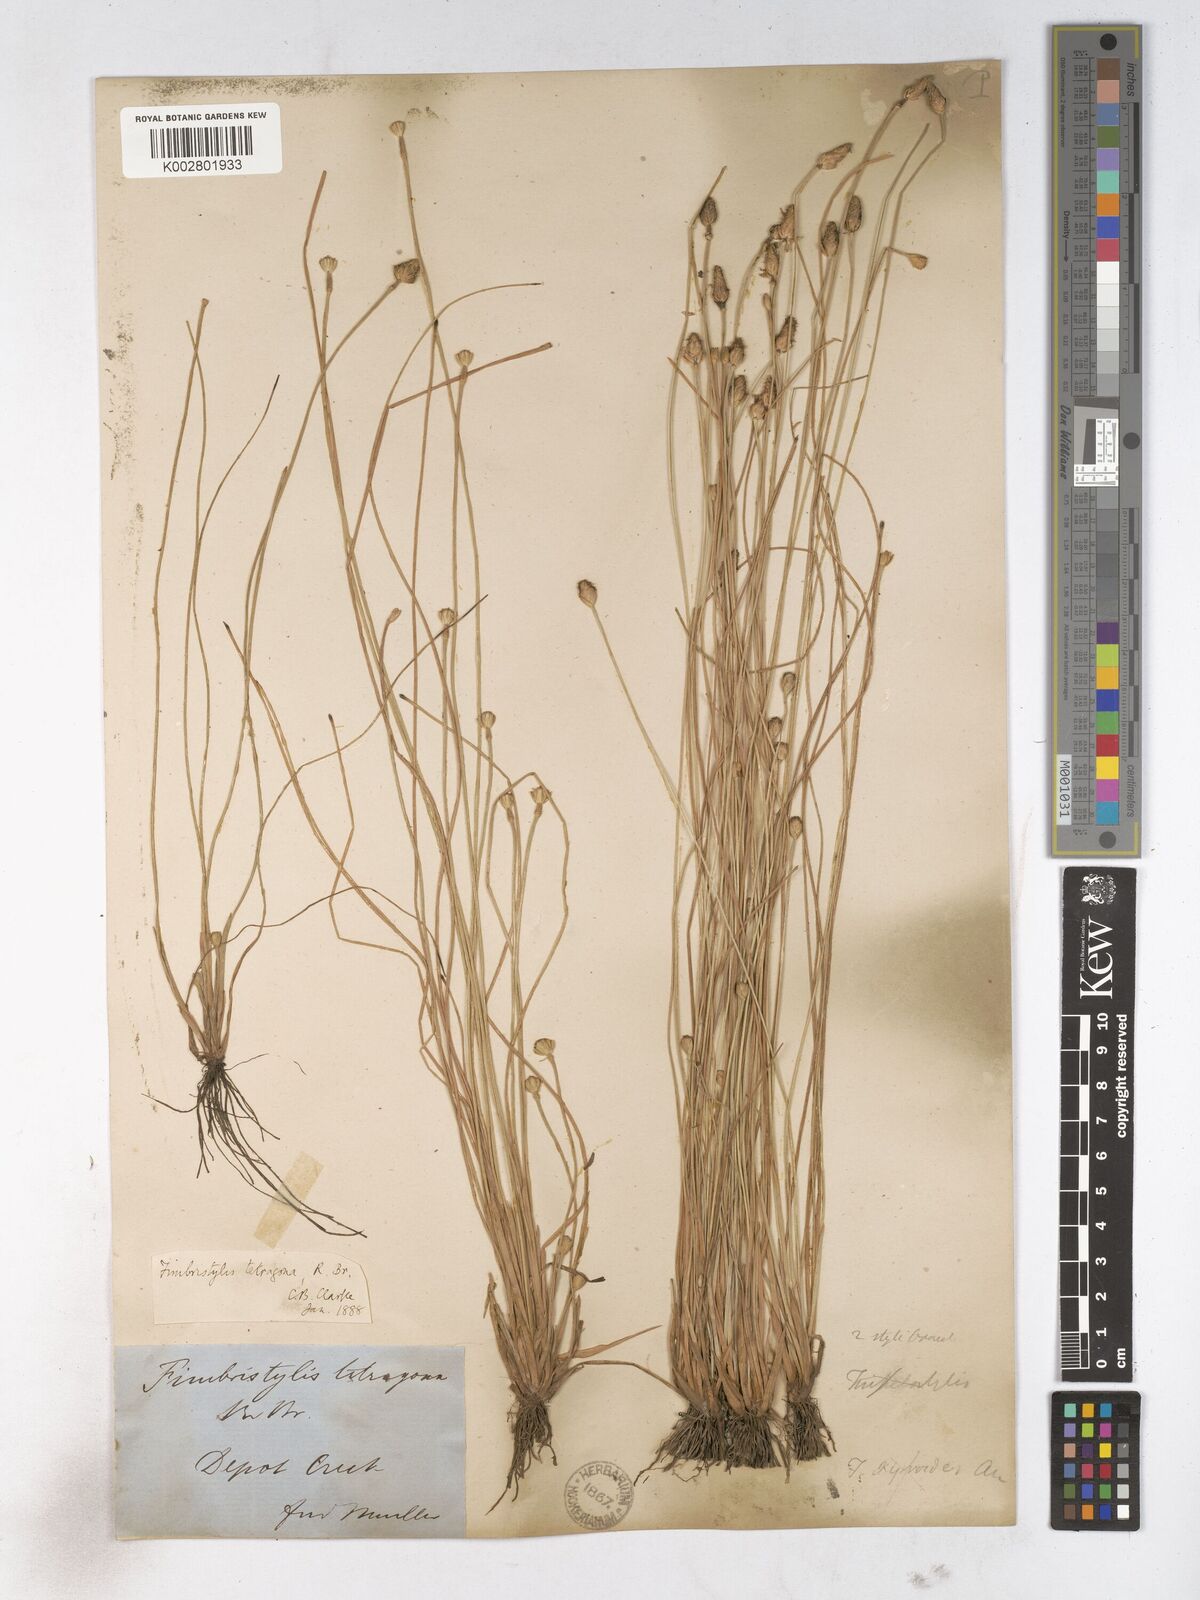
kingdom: Plantae
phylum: Tracheophyta
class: Liliopsida
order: Poales
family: Cyperaceae
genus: Fimbristylis
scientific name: Fimbristylis tetragona
